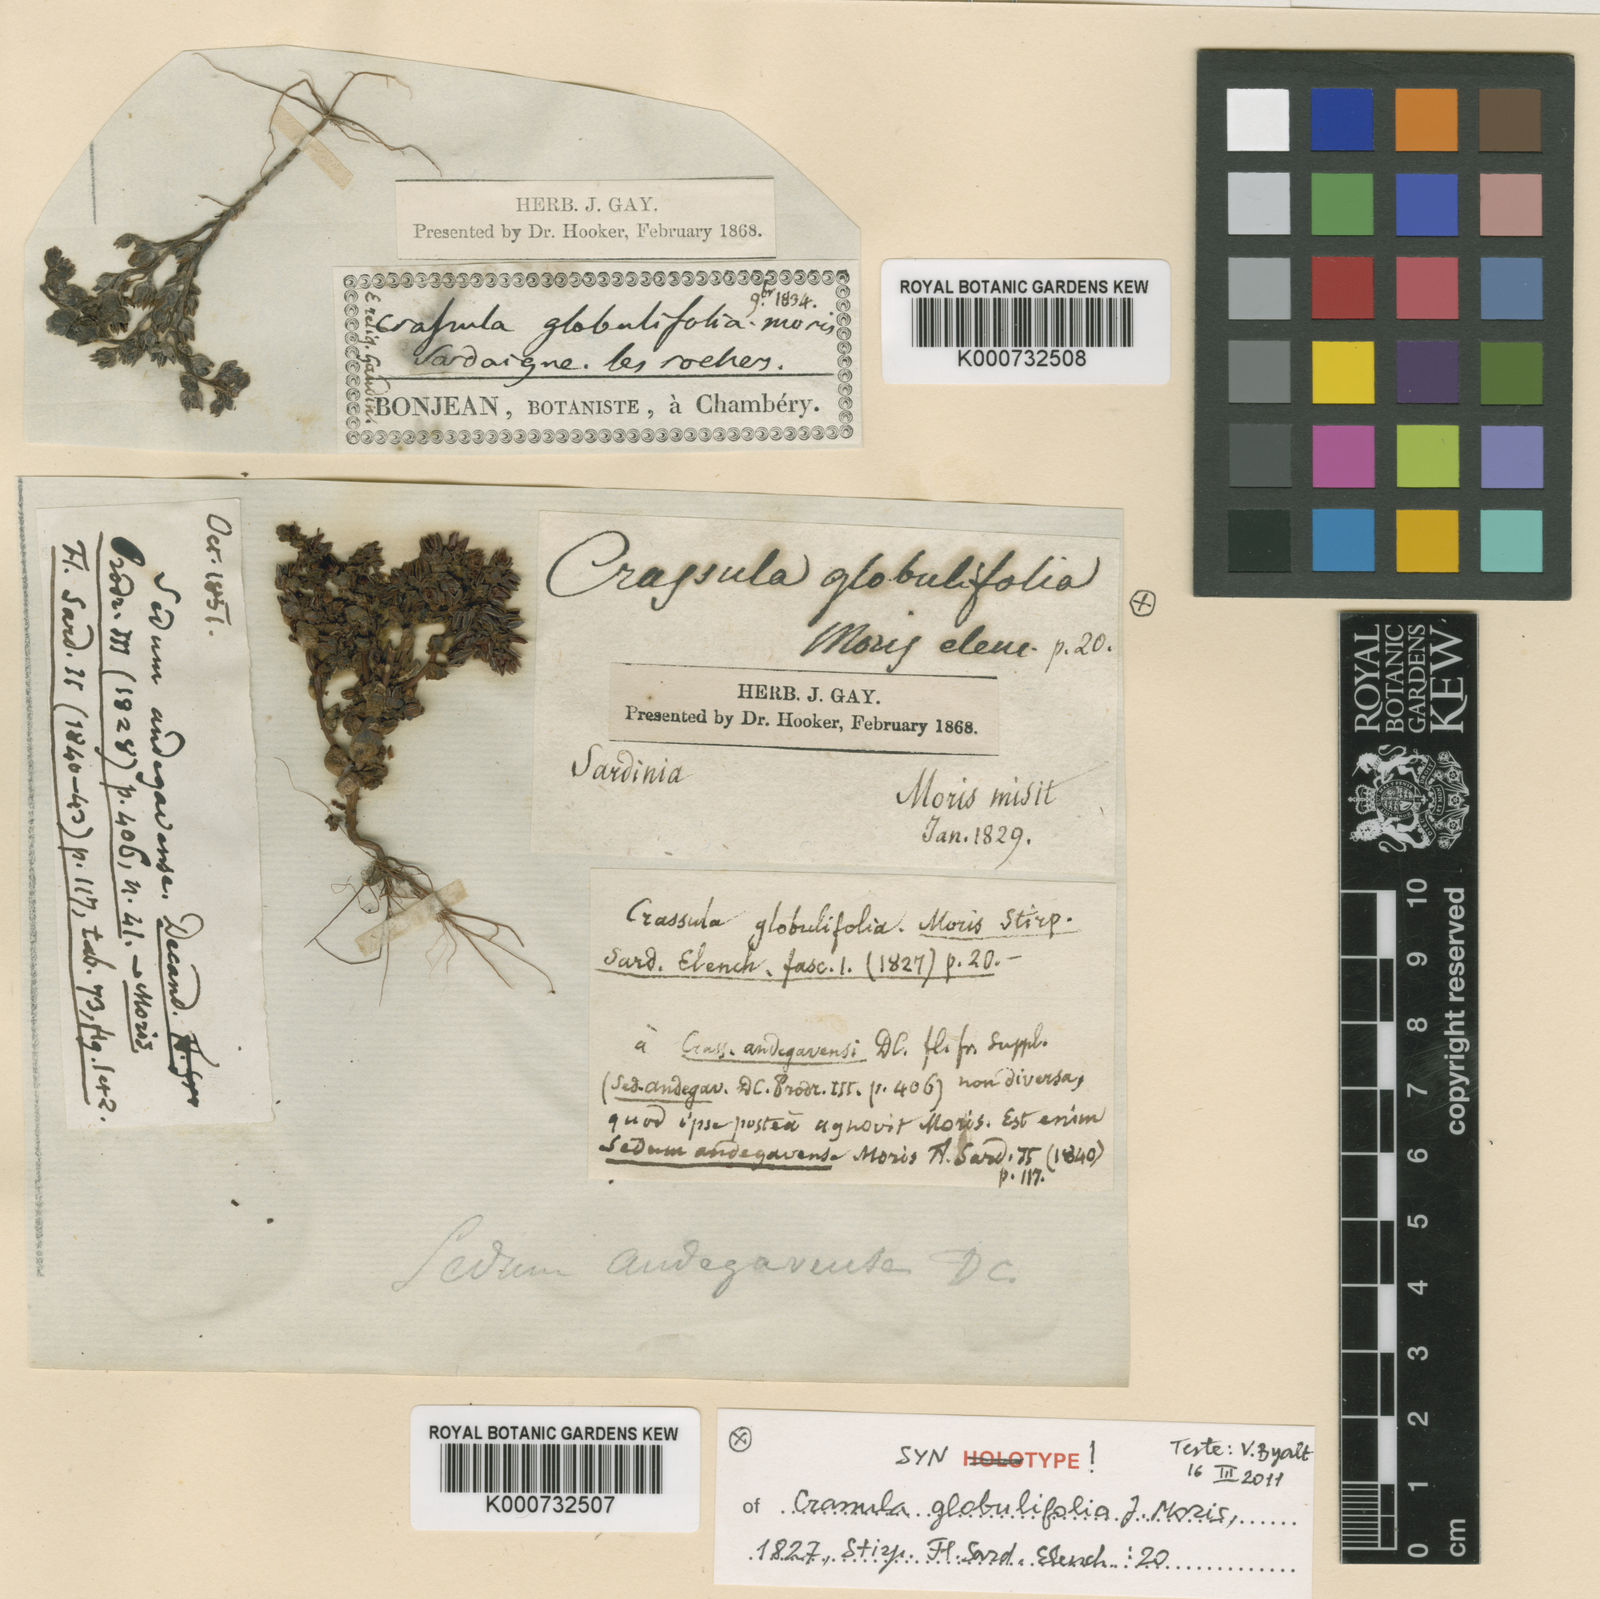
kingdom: Plantae
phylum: Tracheophyta
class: Magnoliopsida
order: Saxifragales
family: Crassulaceae
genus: Sedum
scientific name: Sedum andegavense
